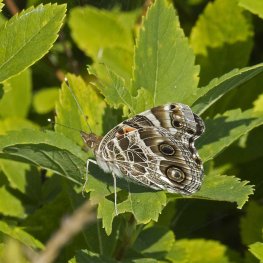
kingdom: Animalia
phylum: Arthropoda
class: Insecta
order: Lepidoptera
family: Nymphalidae
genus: Vanessa
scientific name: Vanessa virginiensis
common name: American Lady
